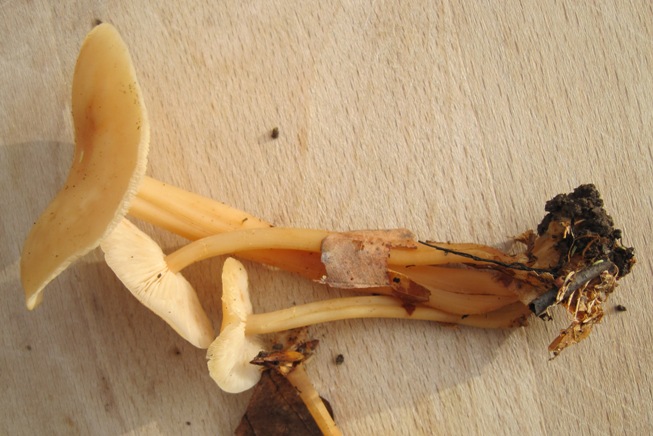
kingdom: Fungi
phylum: Basidiomycota
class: Agaricomycetes
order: Agaricales
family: Omphalotaceae
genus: Gymnopus
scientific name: Gymnopus aquosus
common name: bleg fladhat
